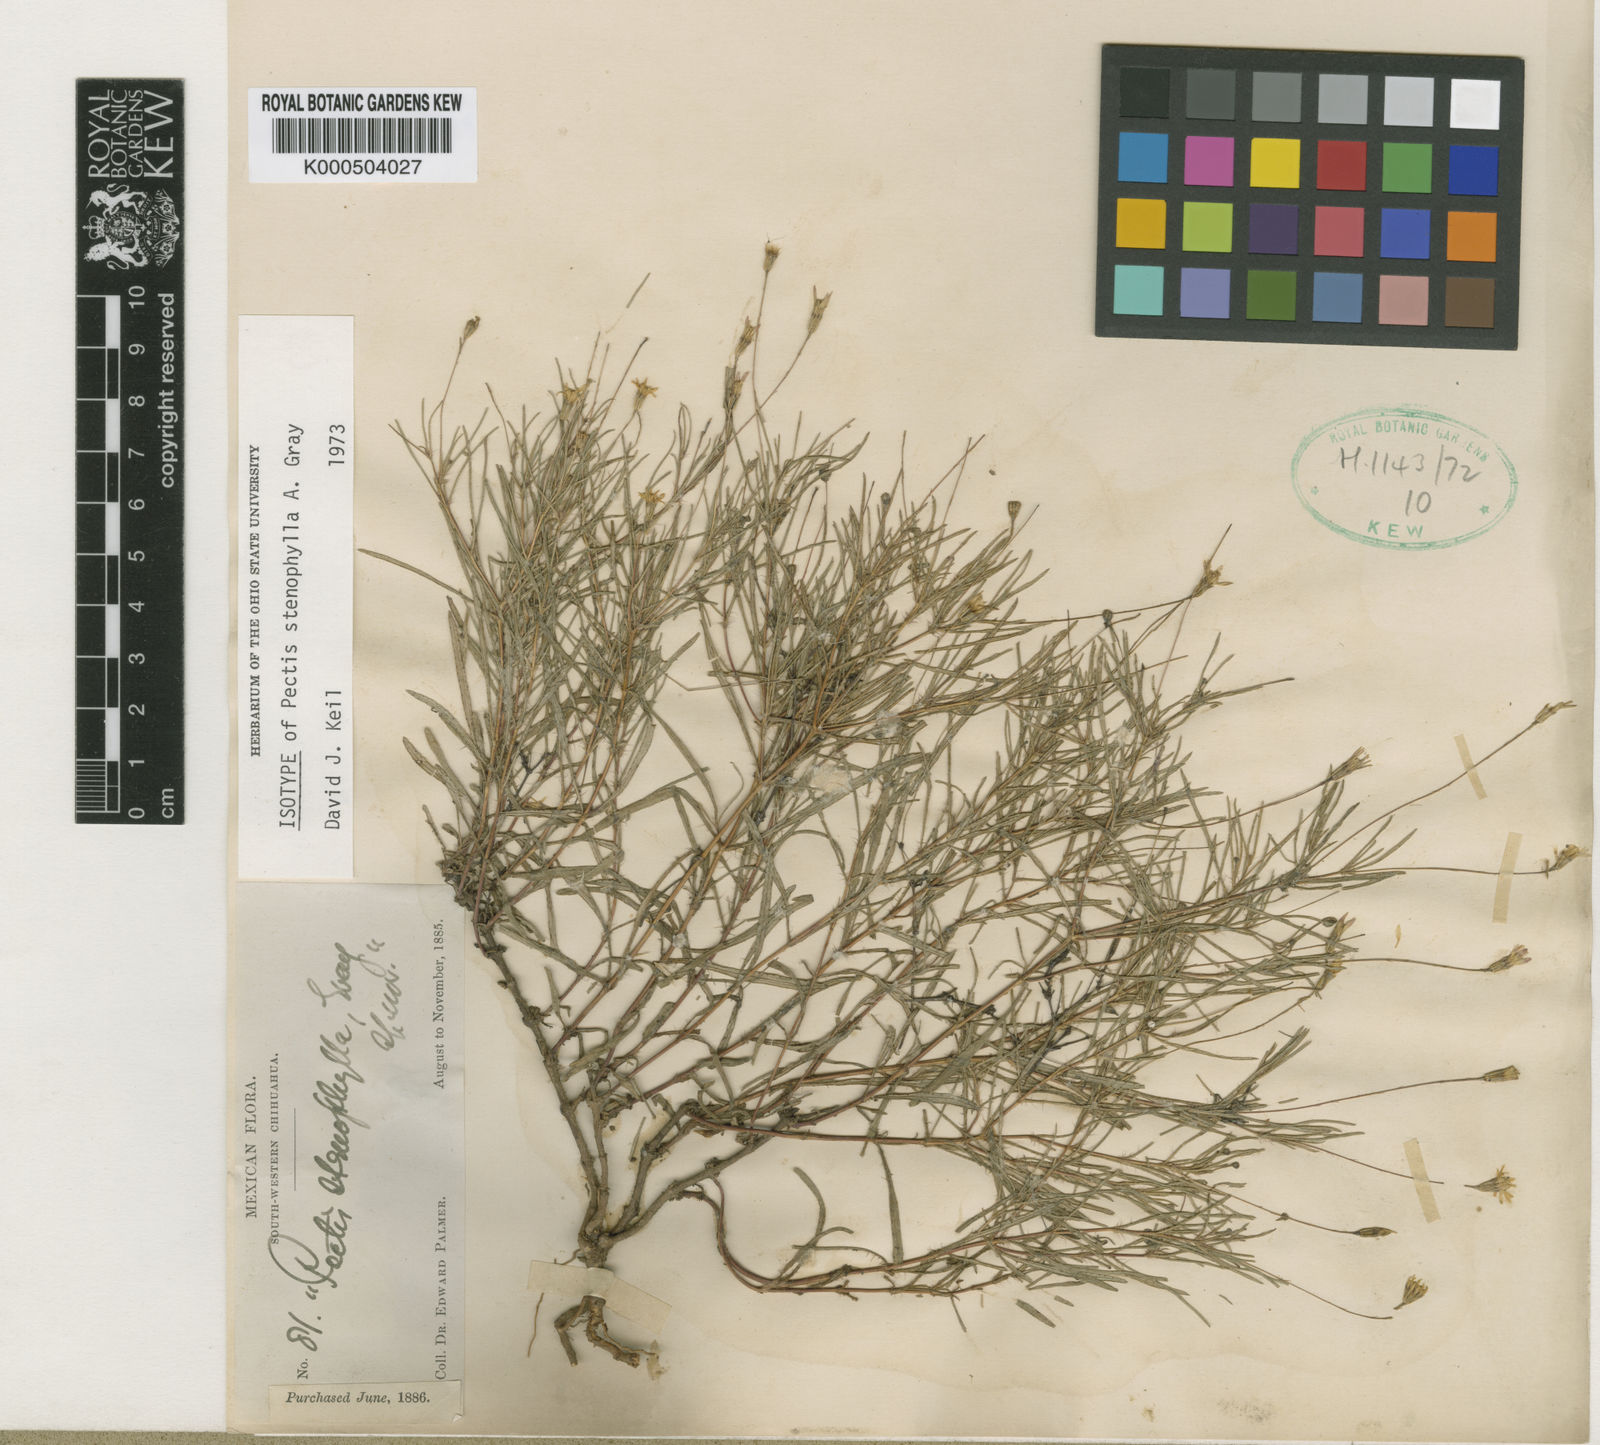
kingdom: Plantae
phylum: Tracheophyta
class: Magnoliopsida
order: Asterales
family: Asteraceae
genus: Pectis
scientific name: Pectis stenophylla
